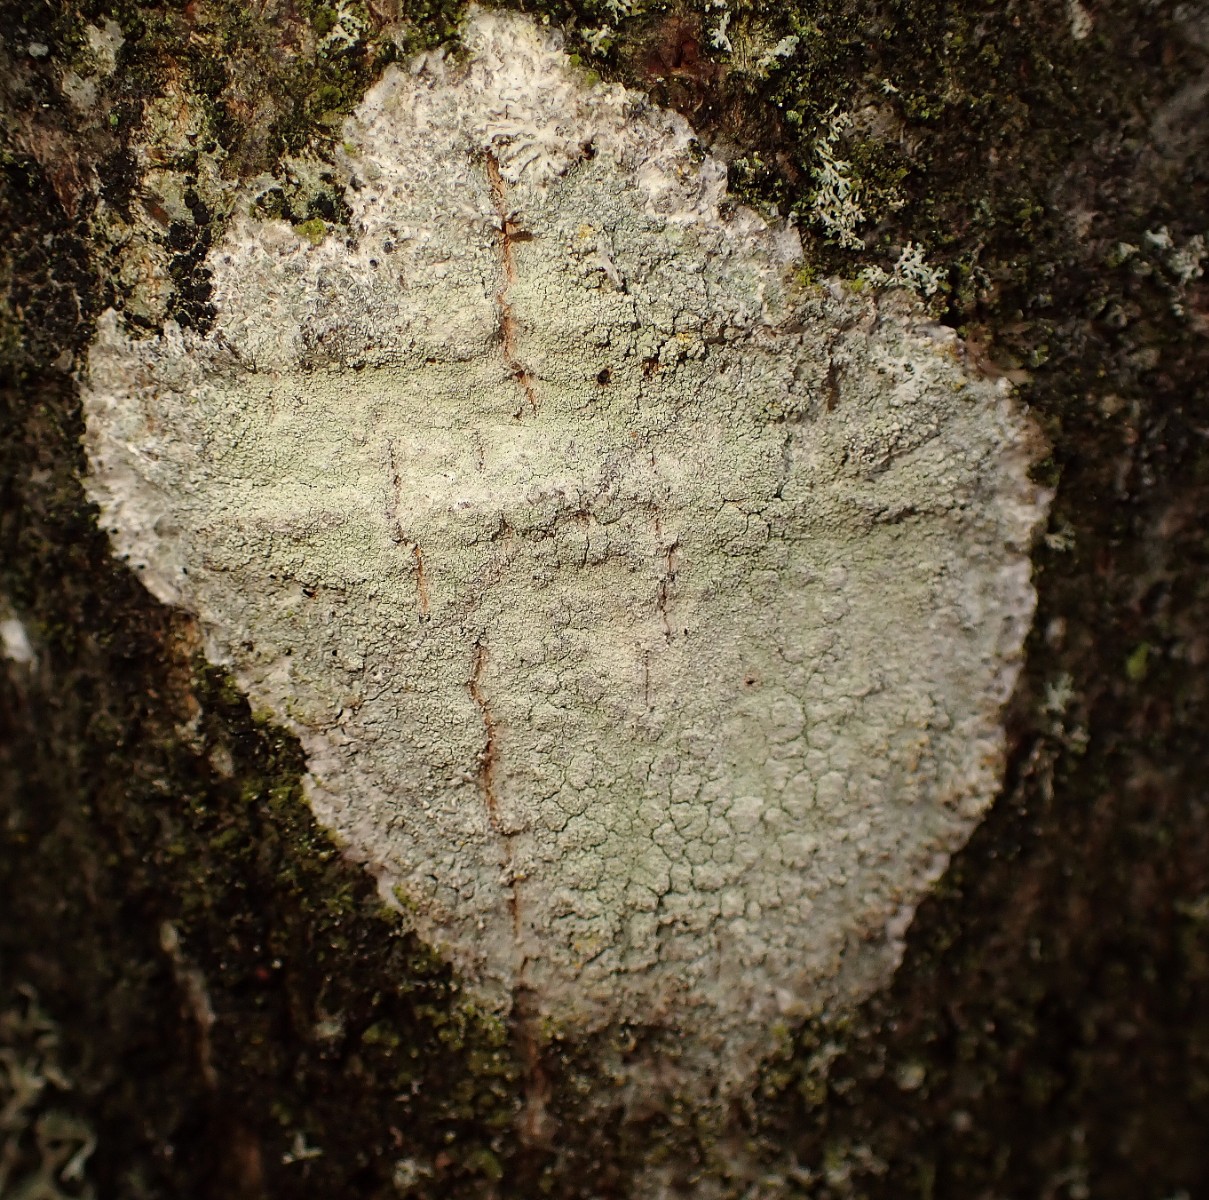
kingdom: Fungi
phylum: Ascomycota
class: Lecanoromycetes
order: Ostropales
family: Phlyctidaceae
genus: Phlyctis
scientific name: Phlyctis argena
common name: almindelig sølvlav
